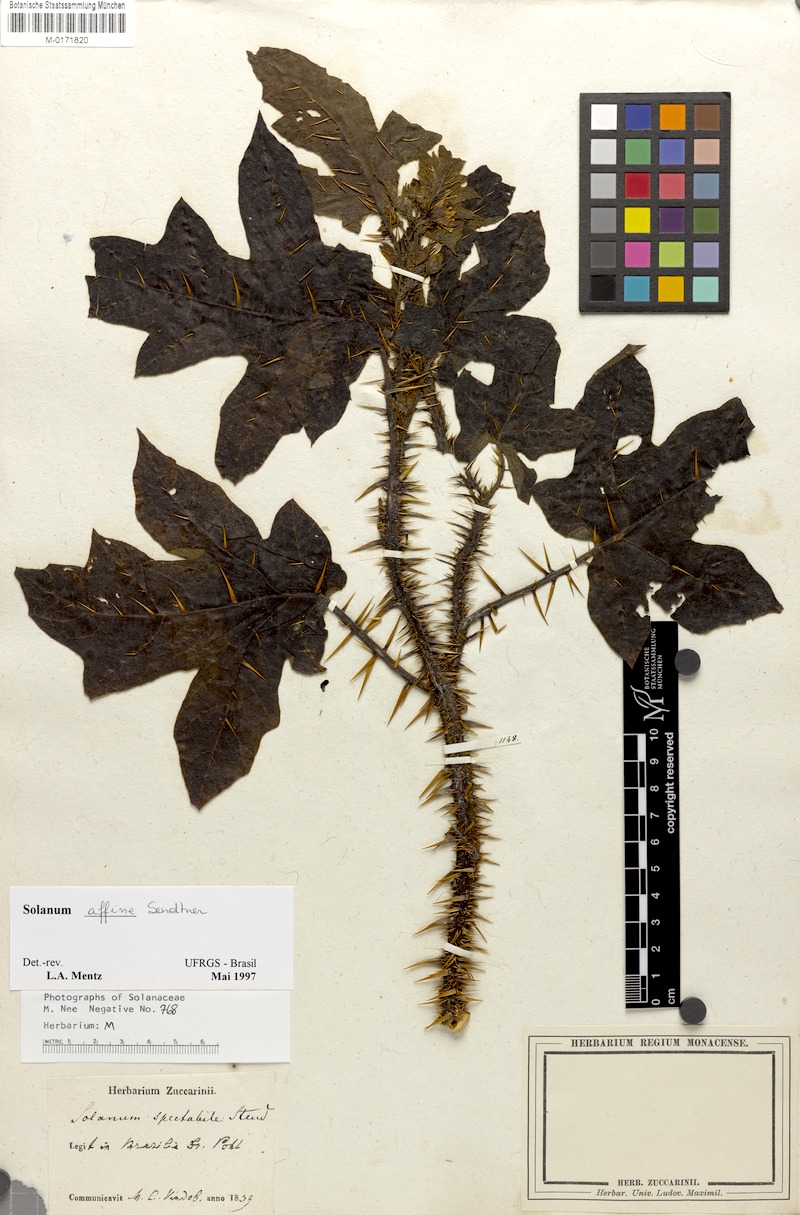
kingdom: Plantae
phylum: Tracheophyta
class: Magnoliopsida
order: Solanales
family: Solanaceae
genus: Solanum
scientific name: Solanum affine
